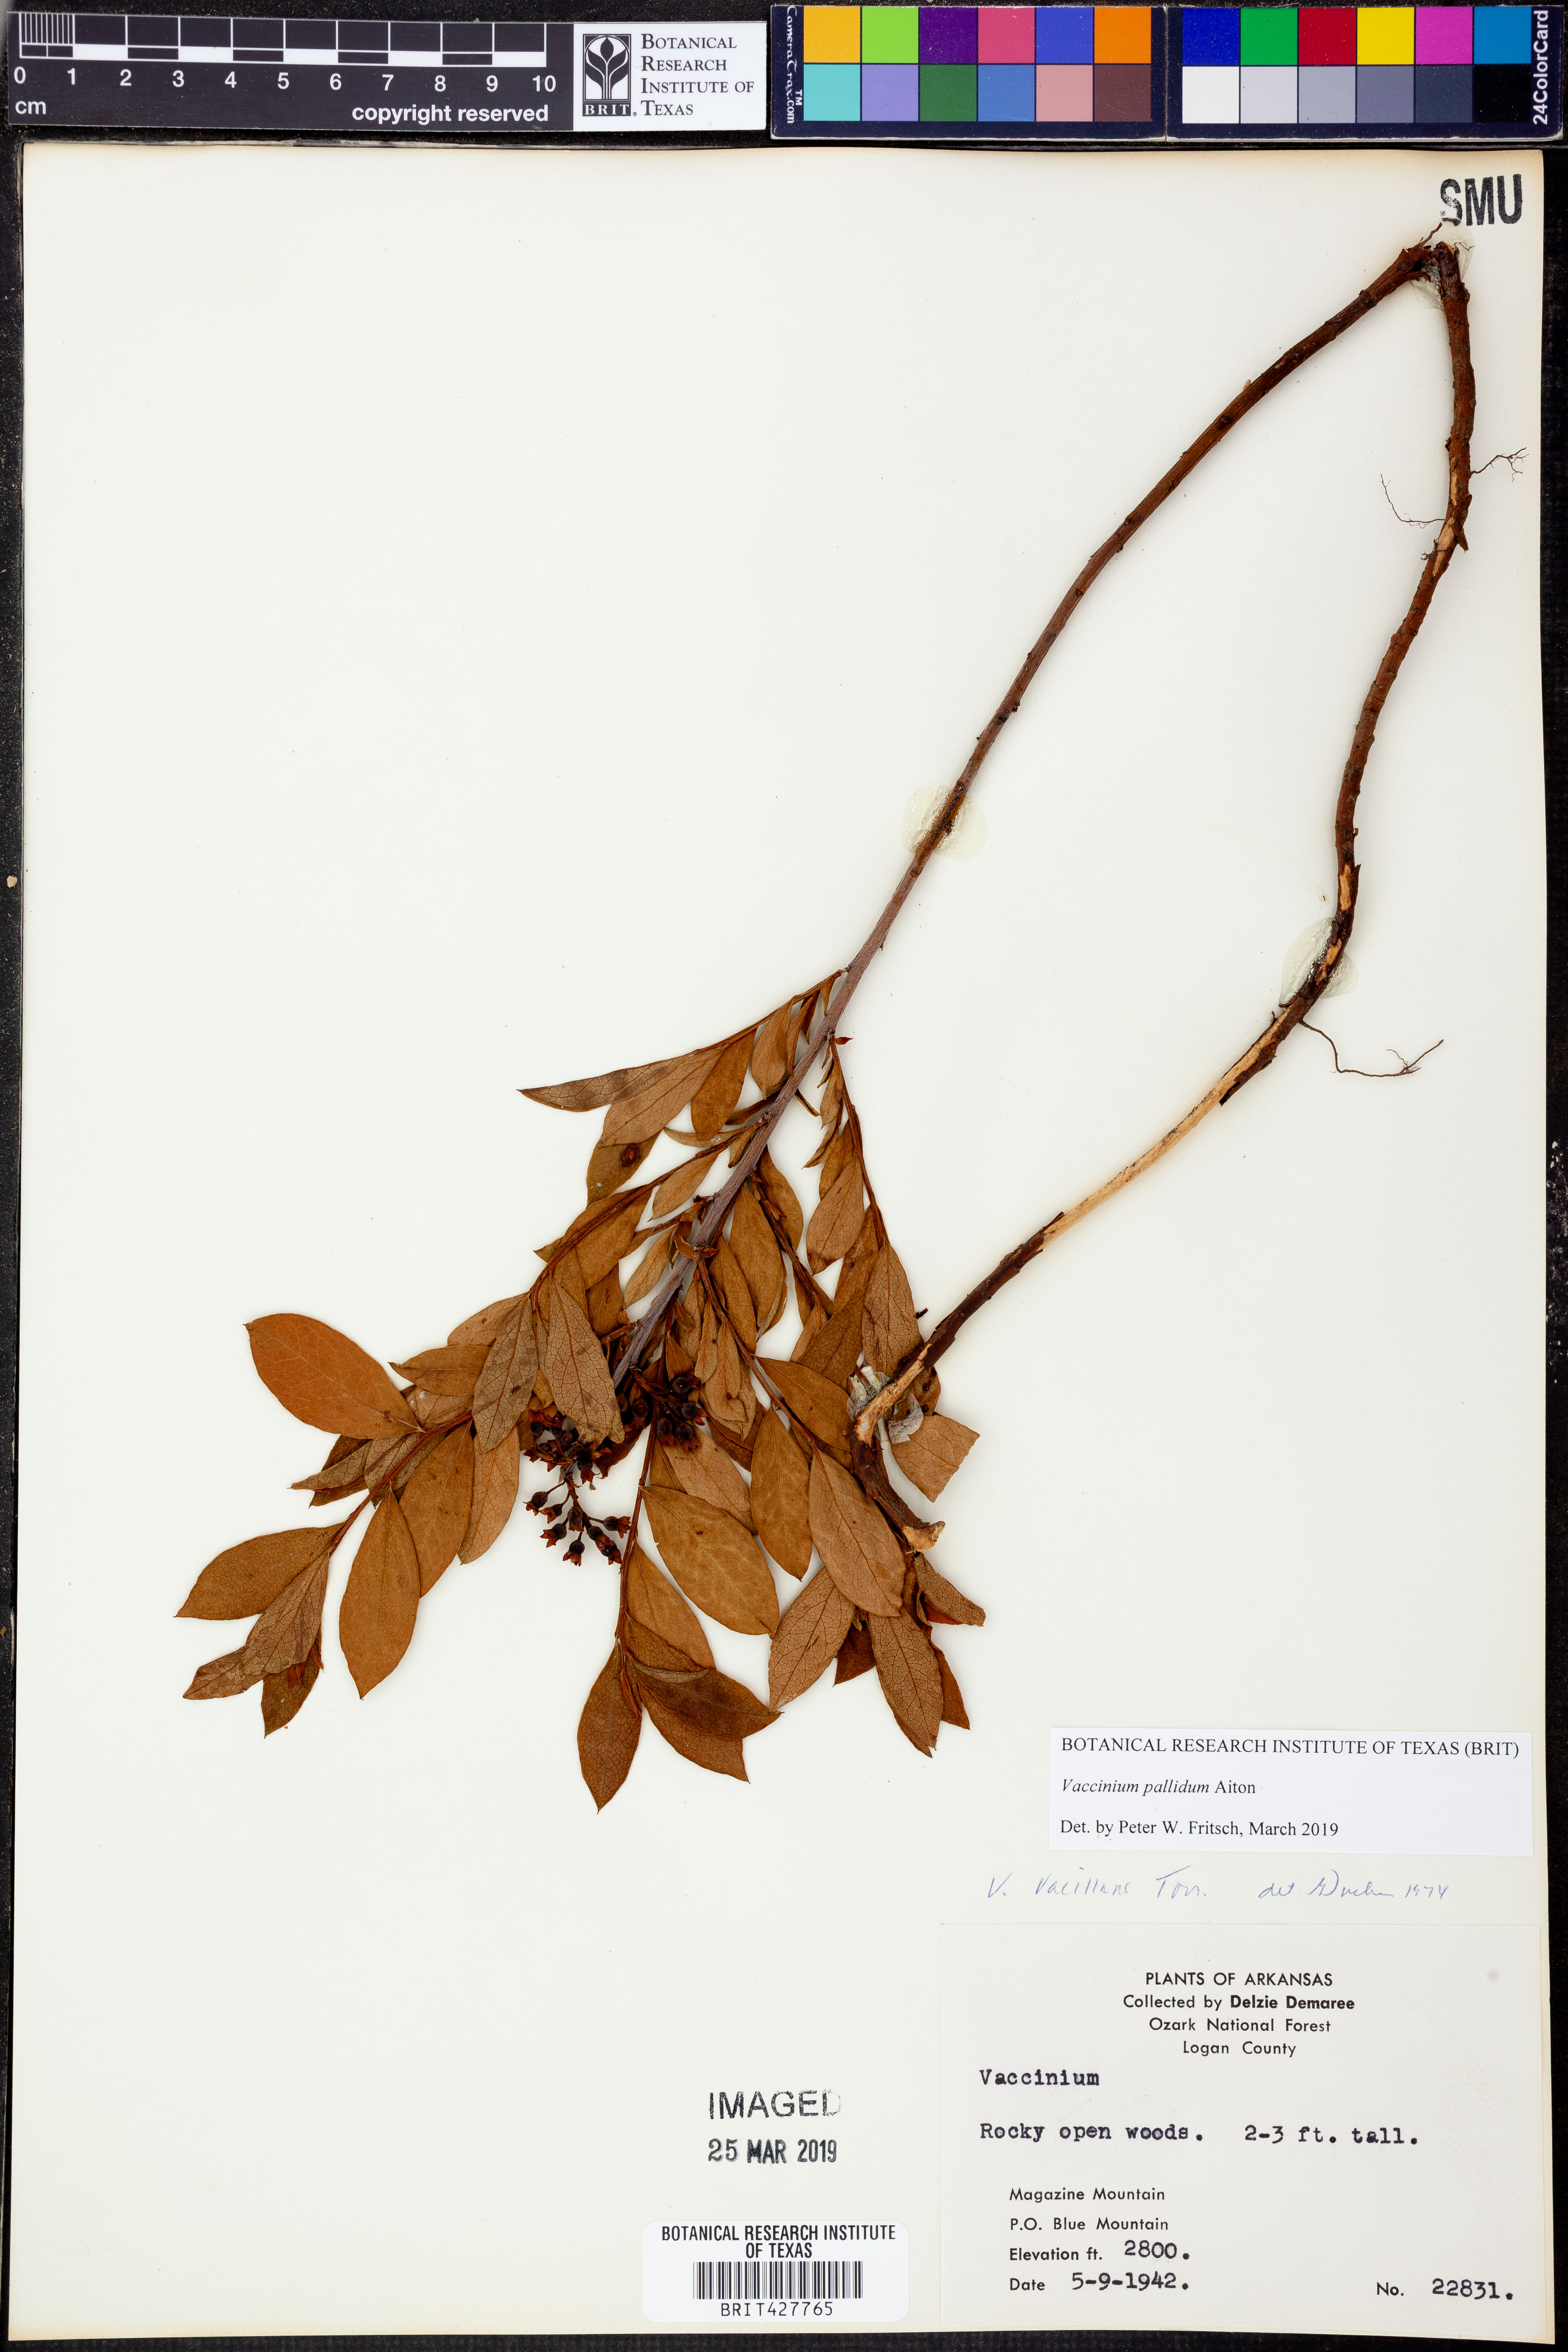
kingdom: Plantae
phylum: Tracheophyta
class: Magnoliopsida
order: Ericales
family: Ericaceae
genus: Vaccinium
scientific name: Vaccinium pallidum
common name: Blue ridge blueberry
